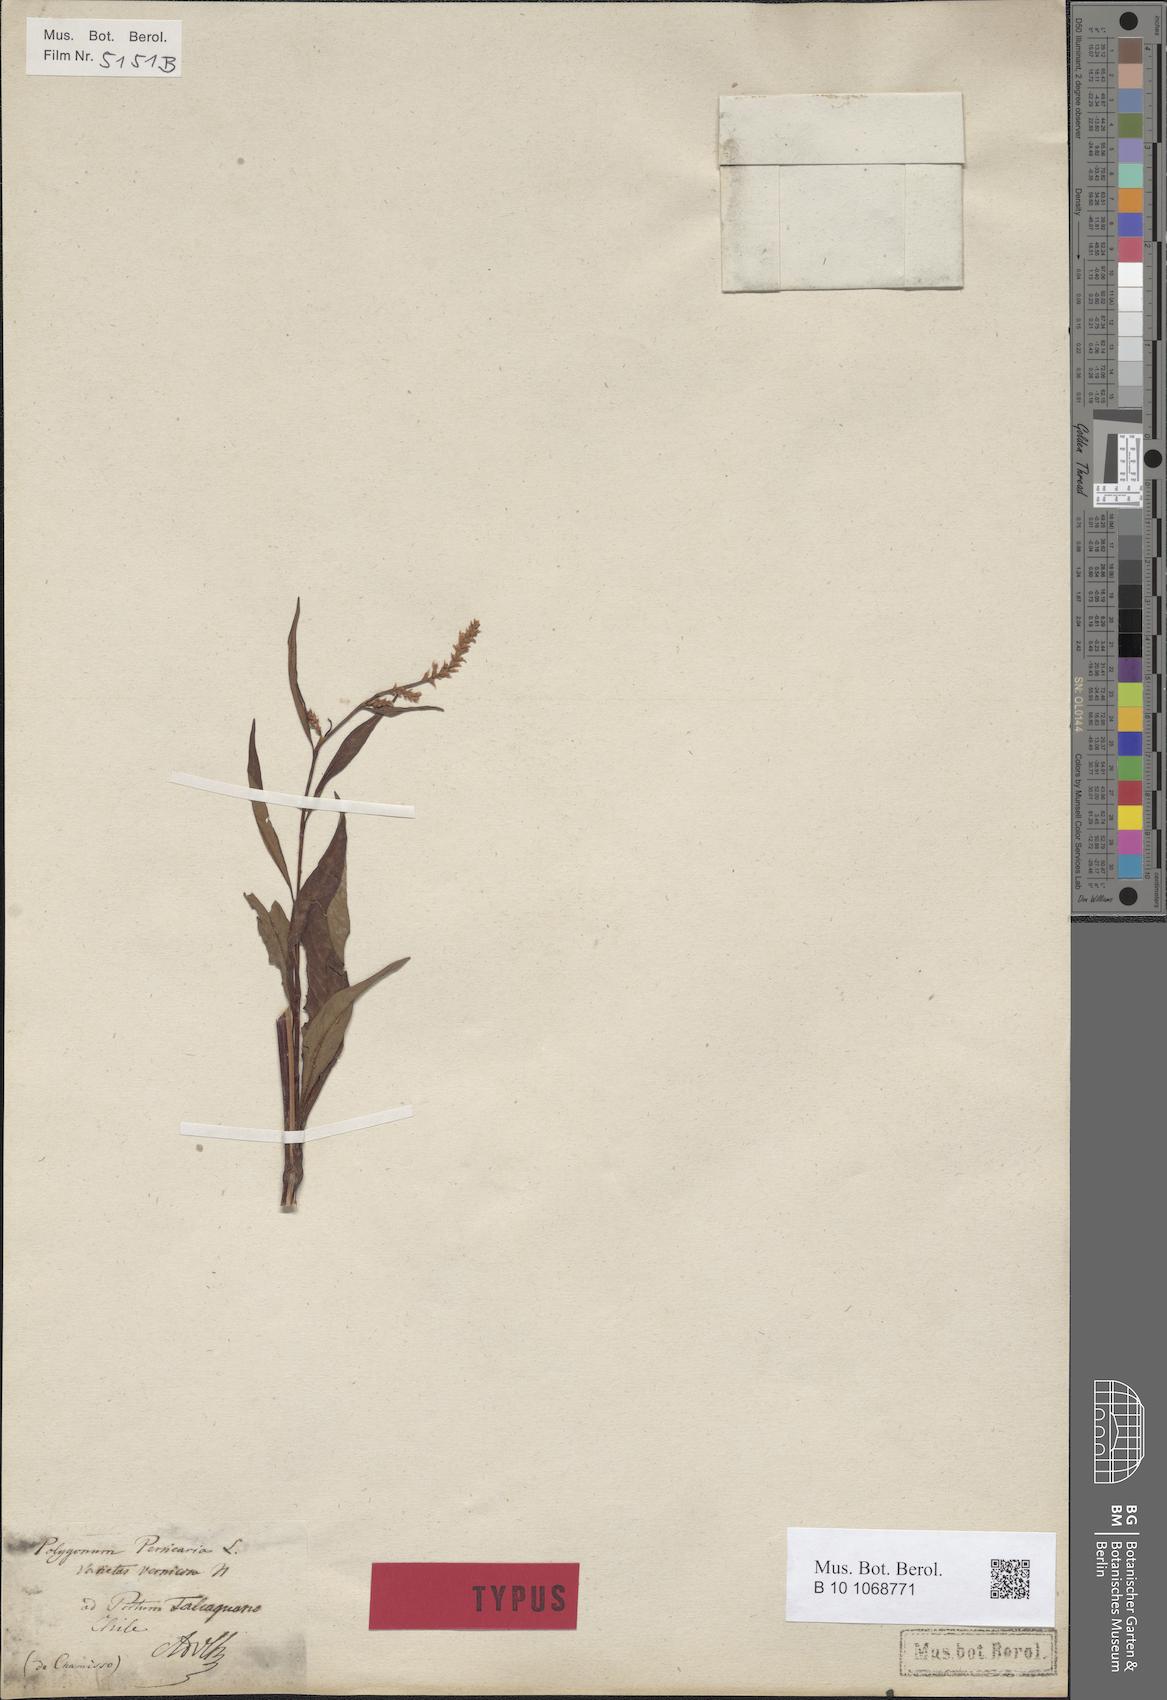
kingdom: Plantae
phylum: Tracheophyta
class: Magnoliopsida
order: Caryophyllales
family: Polygonaceae
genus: Persicaria
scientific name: Persicaria lapathifolia
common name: Curlytop knotweed
